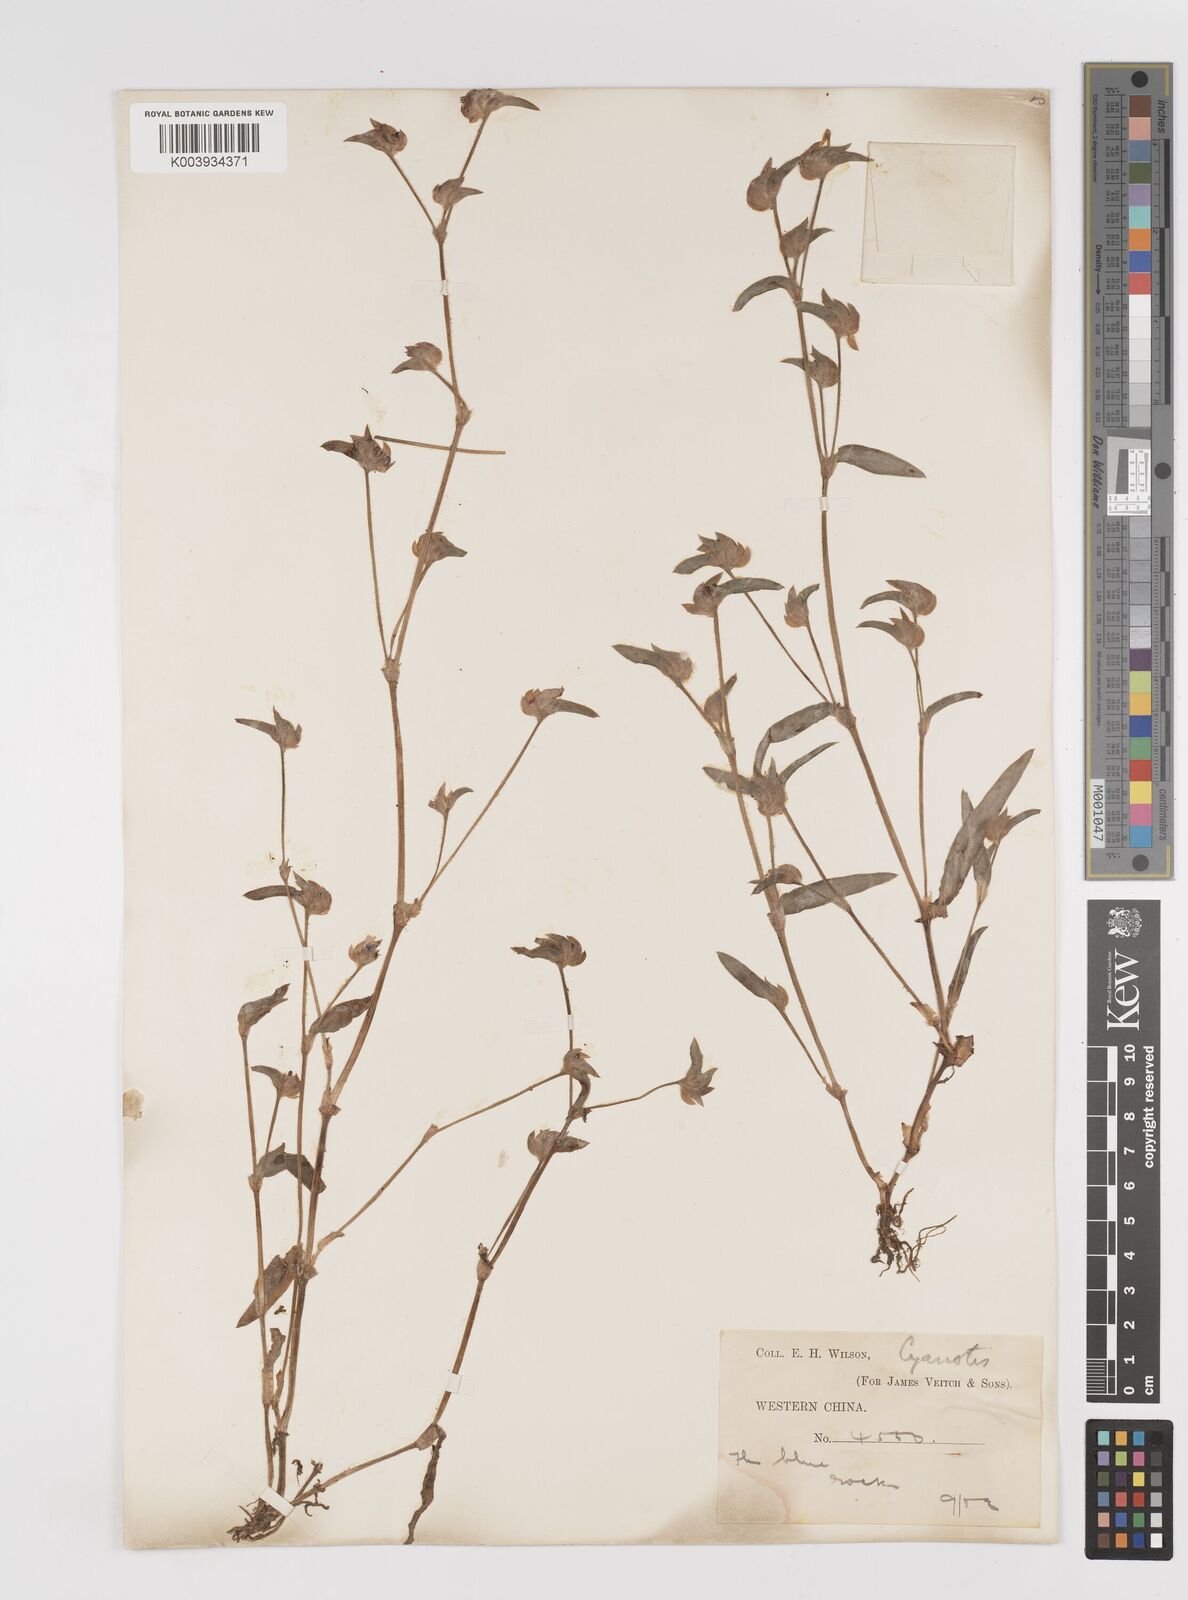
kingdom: Plantae
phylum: Tracheophyta
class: Liliopsida
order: Commelinales
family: Commelinaceae
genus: Cyanotis
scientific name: Cyanotis
